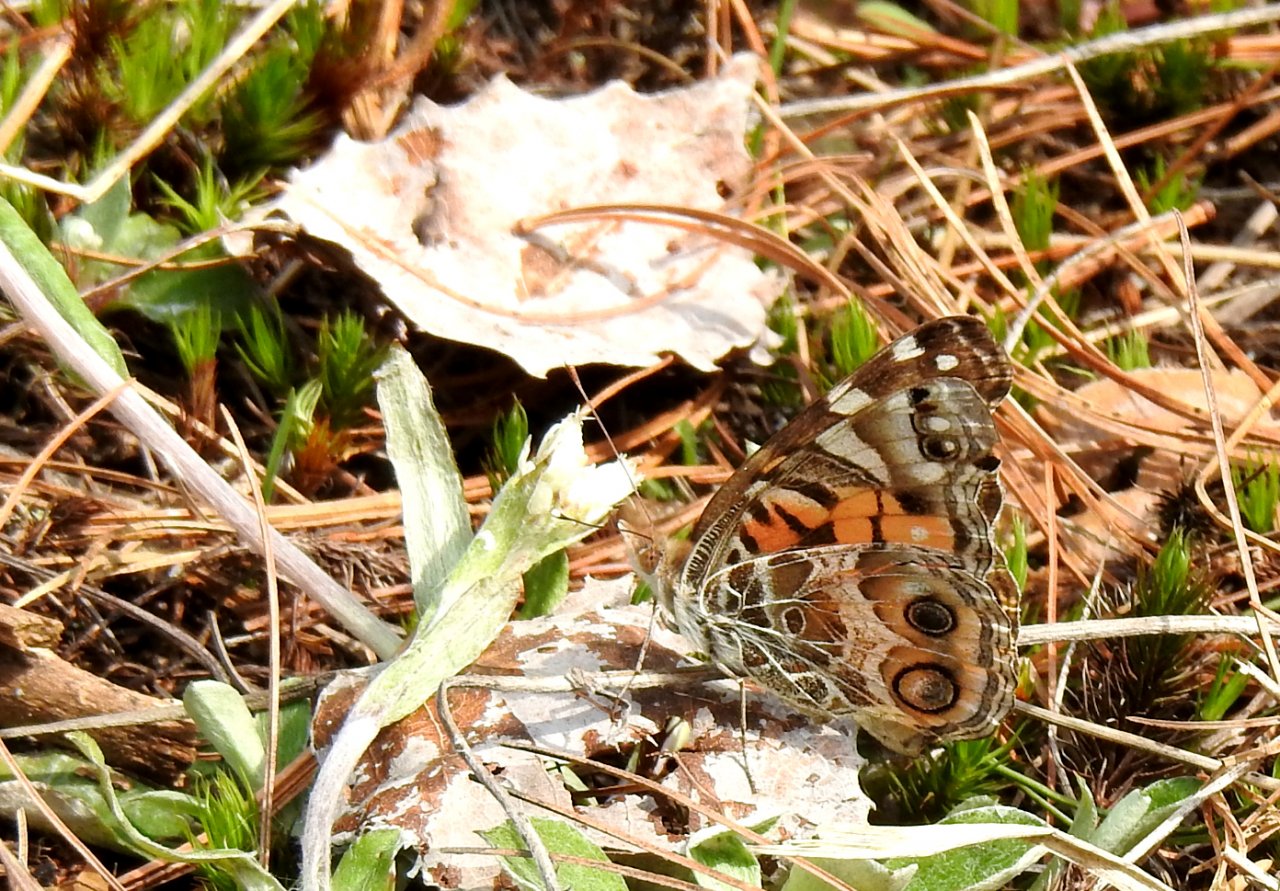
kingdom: Animalia
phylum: Arthropoda
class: Insecta
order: Lepidoptera
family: Nymphalidae
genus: Vanessa
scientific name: Vanessa virginiensis
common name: American Lady
